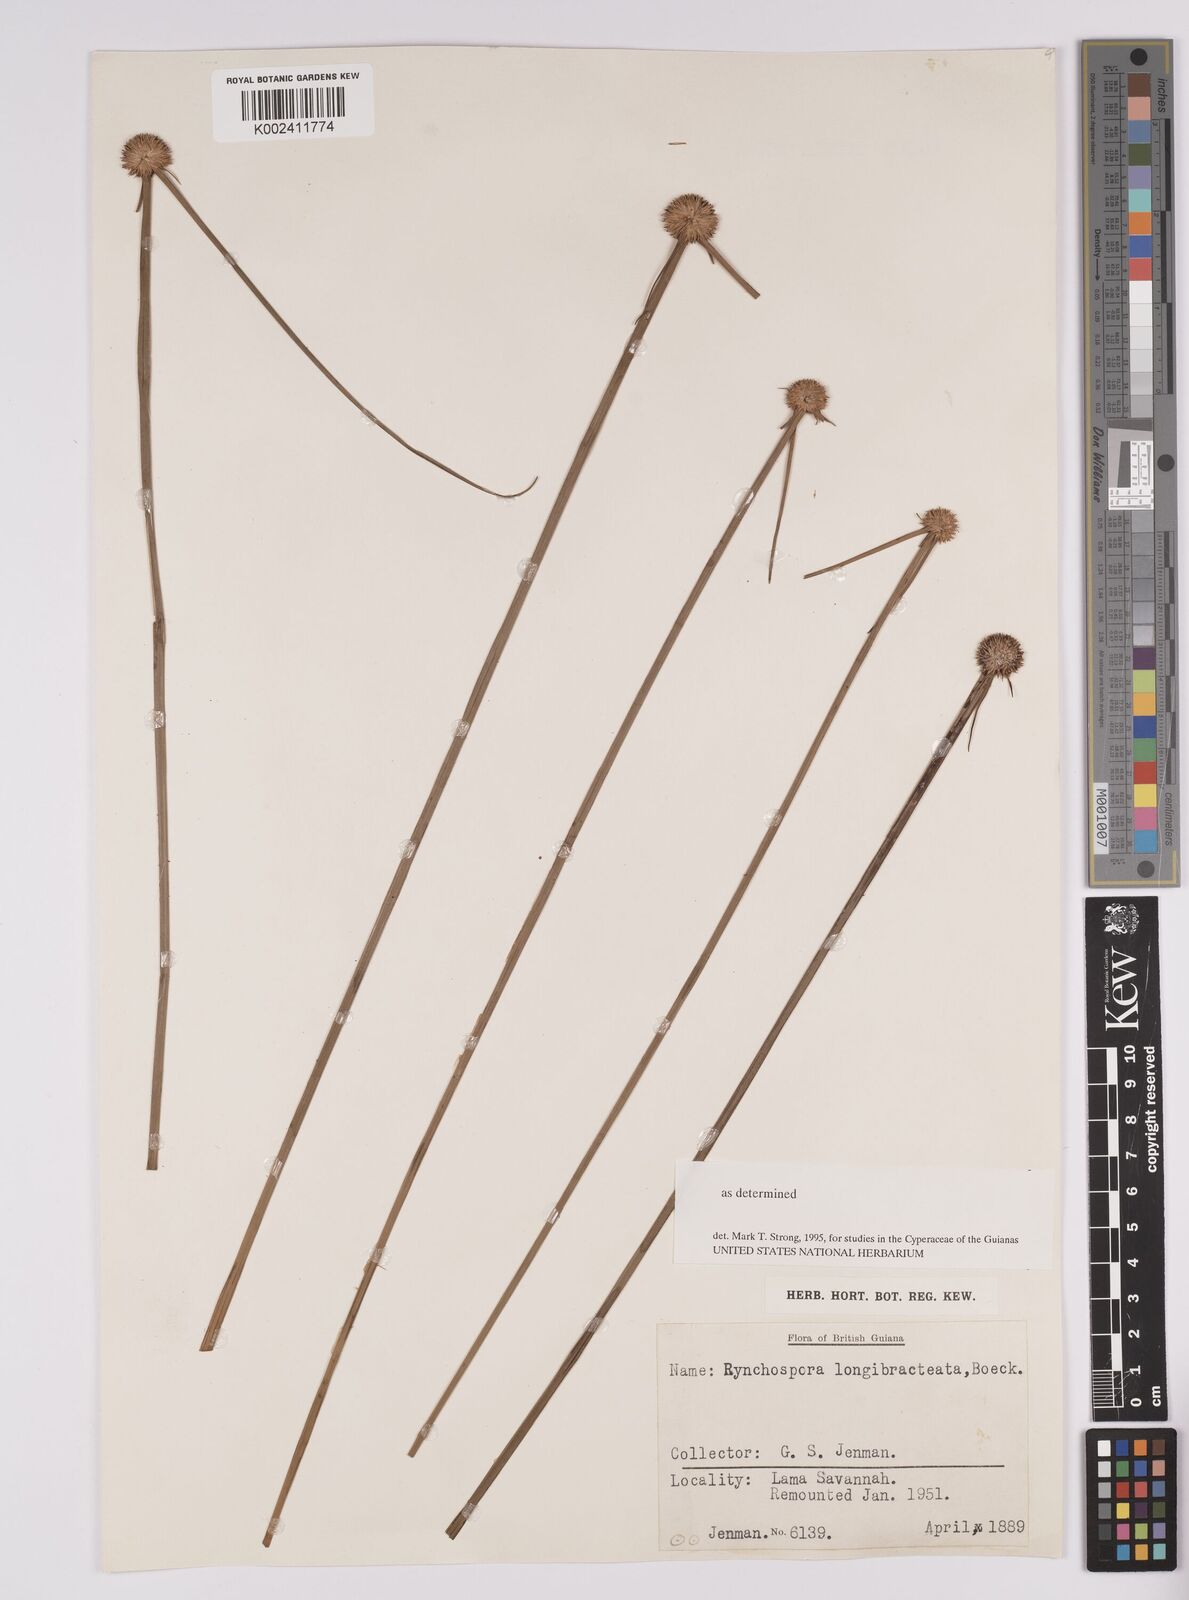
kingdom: Plantae
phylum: Tracheophyta
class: Liliopsida
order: Poales
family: Cyperaceae
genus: Rhynchospora
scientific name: Rhynchospora longibracteata
